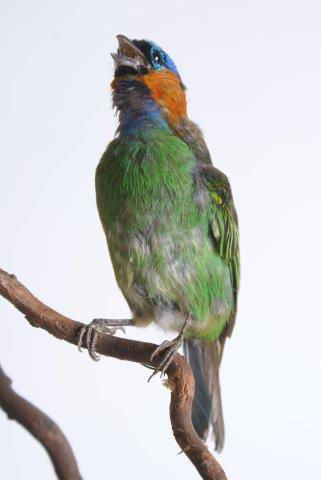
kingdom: Animalia
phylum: Chordata
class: Aves
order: Passeriformes
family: Thraupidae
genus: Tangara
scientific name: Tangara cyanocephala
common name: Red-necked tanager
